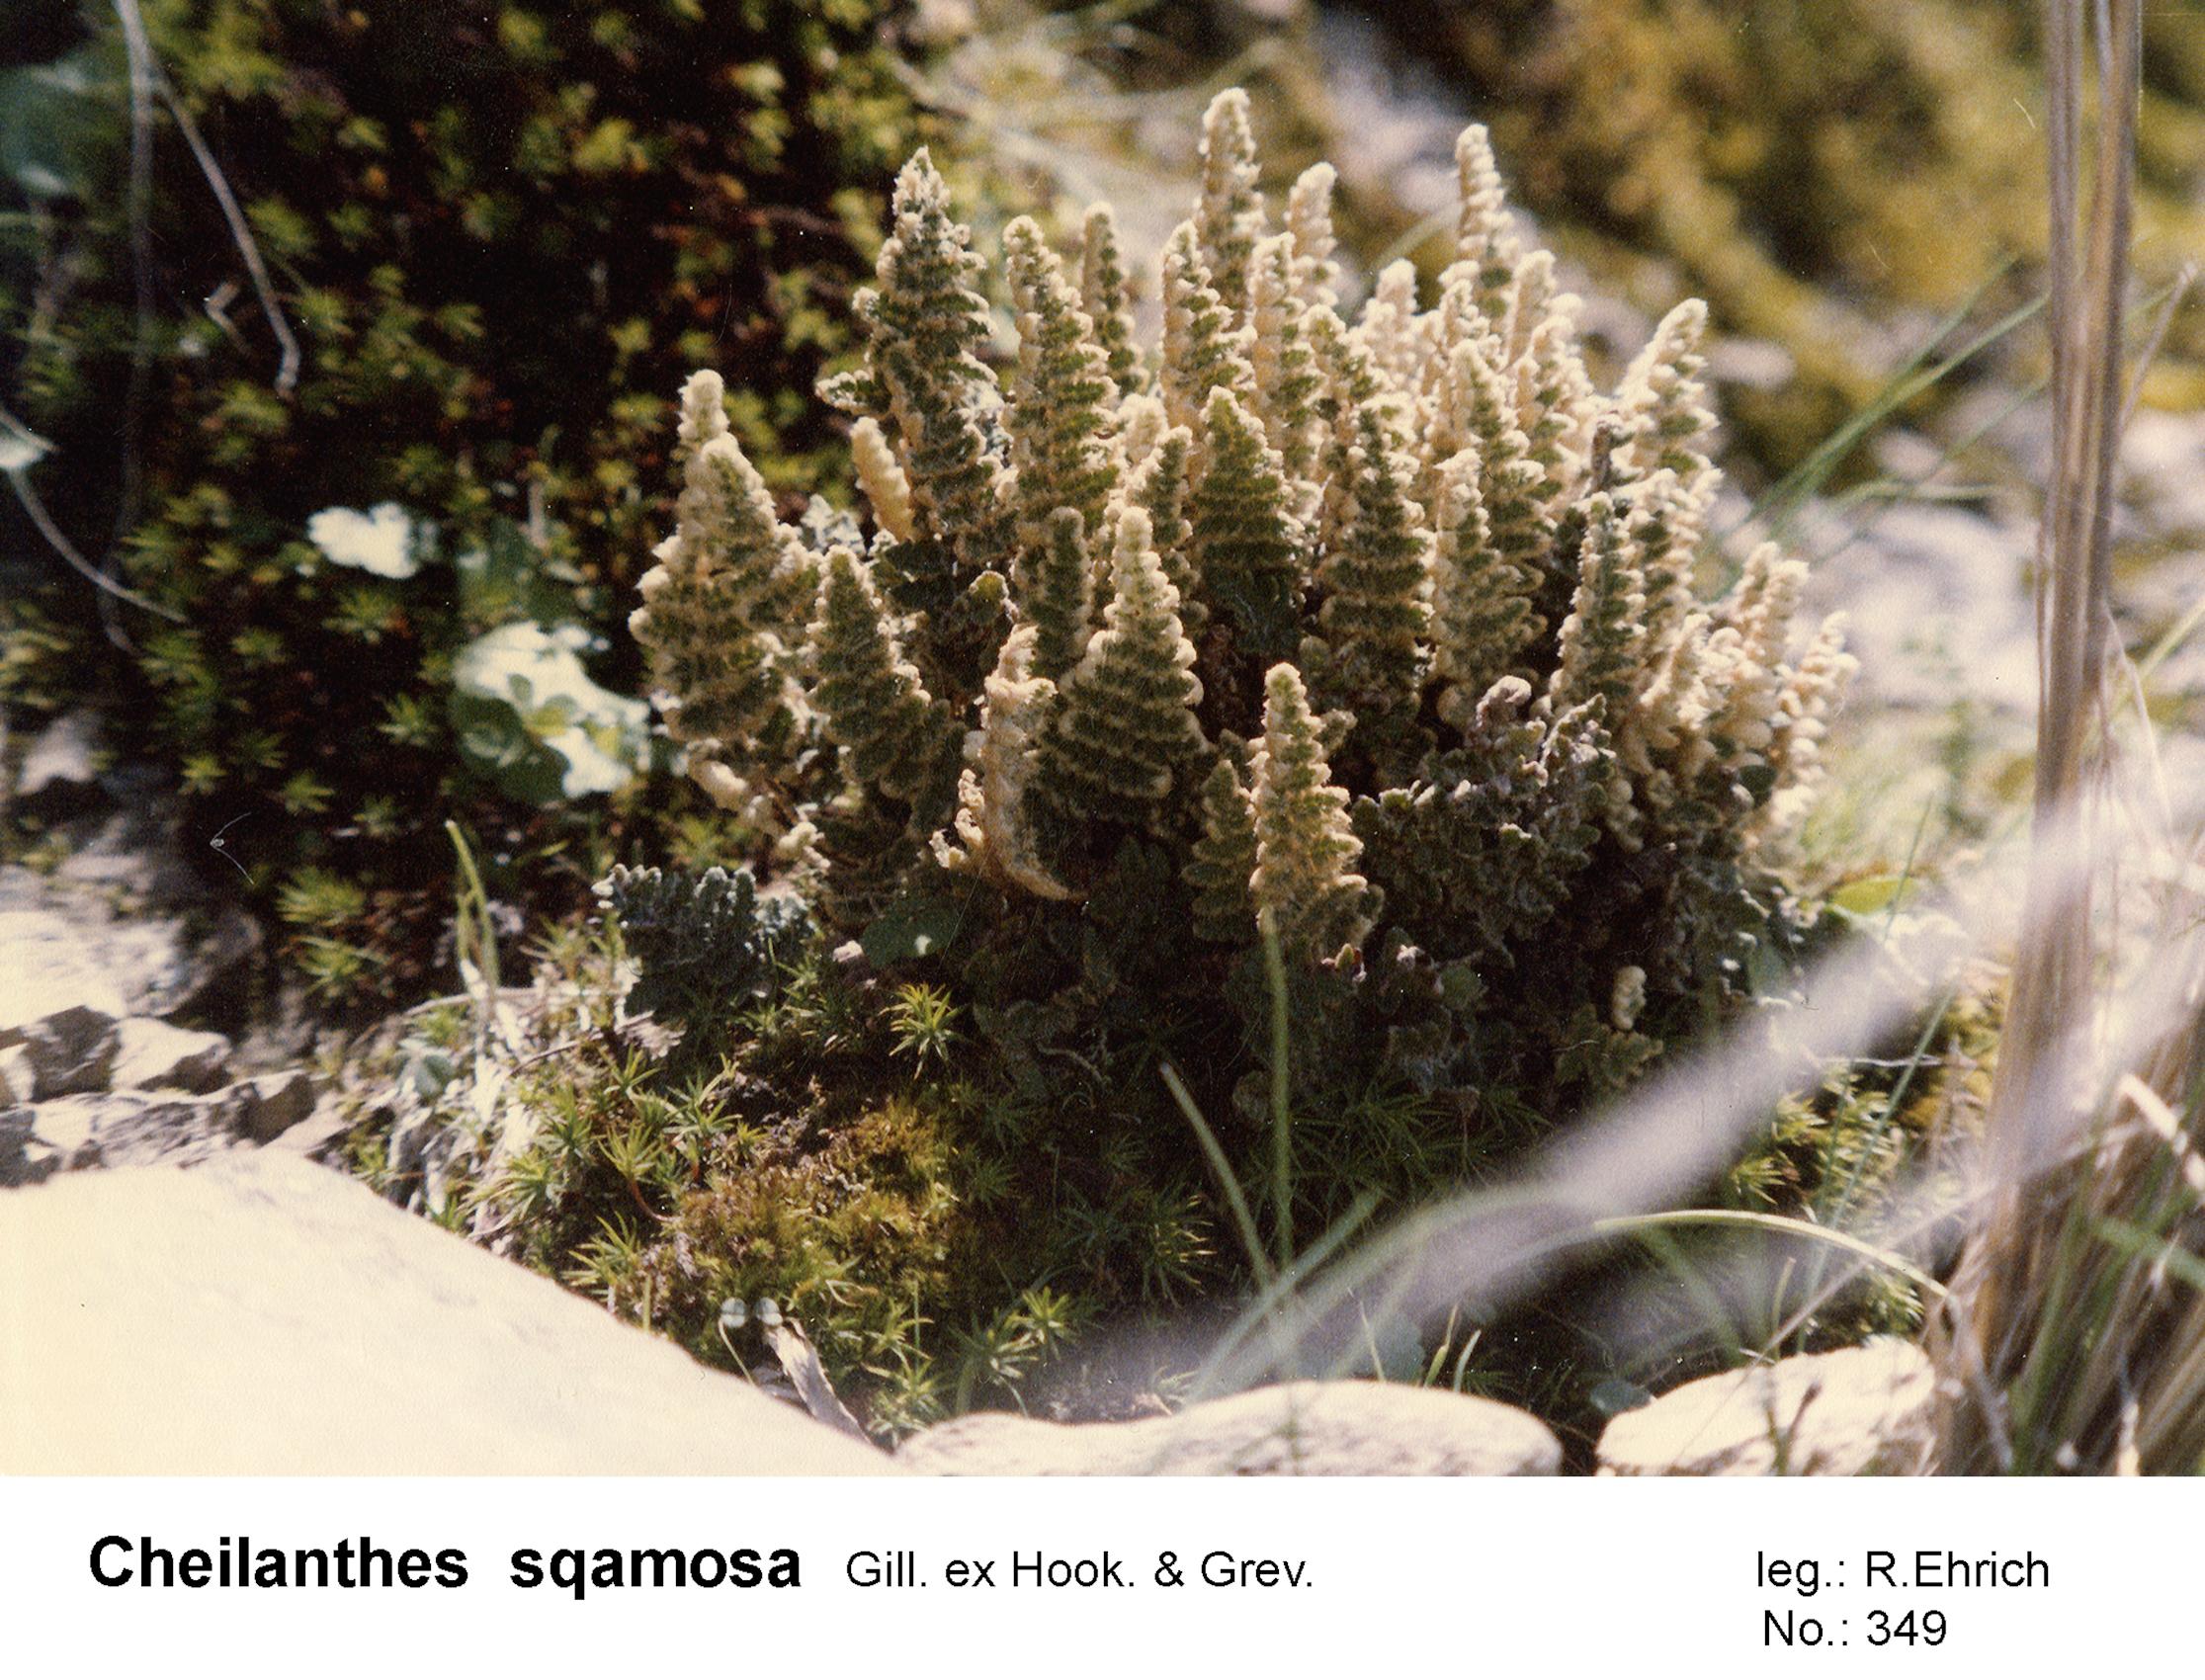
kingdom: Plantae
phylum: Tracheophyta
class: Polypodiopsida
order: Polypodiales
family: Pteridaceae
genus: Cheilanthes
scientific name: Cheilanthes squamosa
